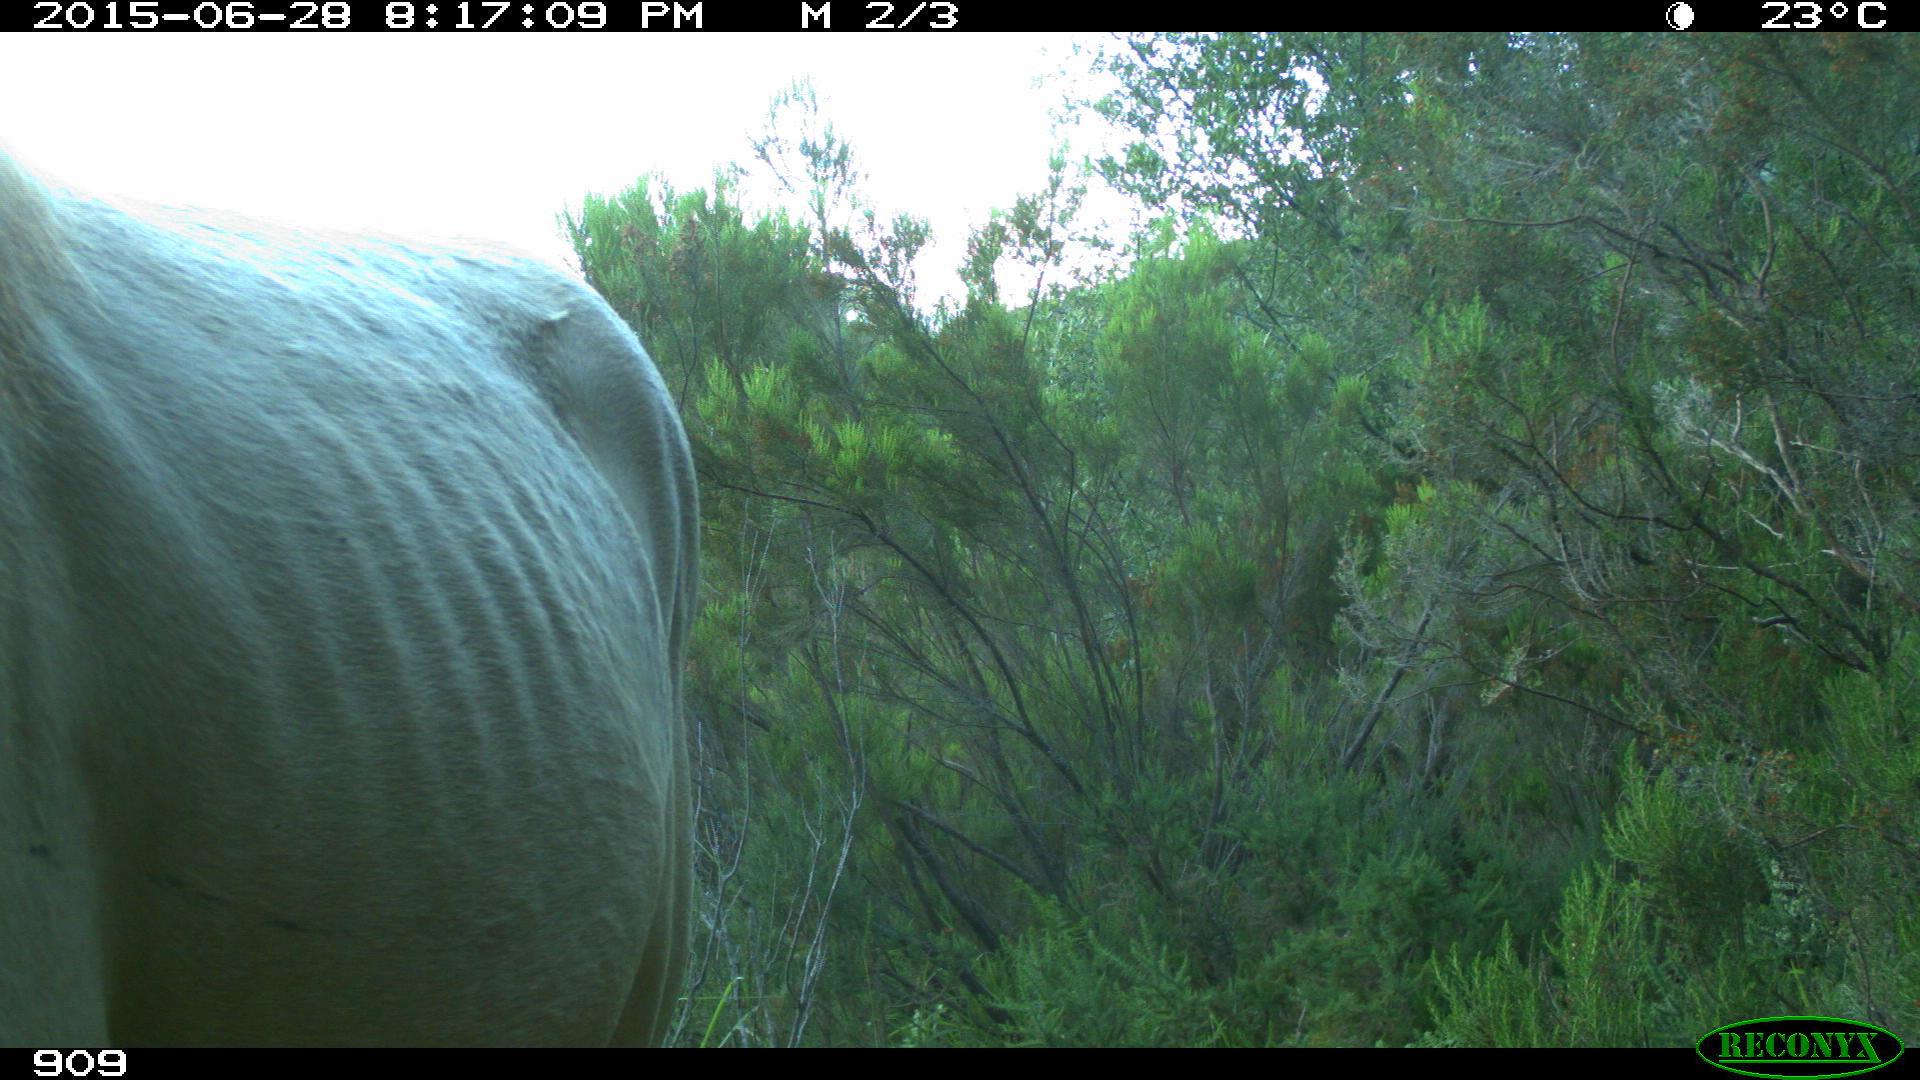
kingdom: Animalia
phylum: Chordata
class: Mammalia
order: Perissodactyla
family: Equidae
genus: Equus
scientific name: Equus caballus
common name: Horse
